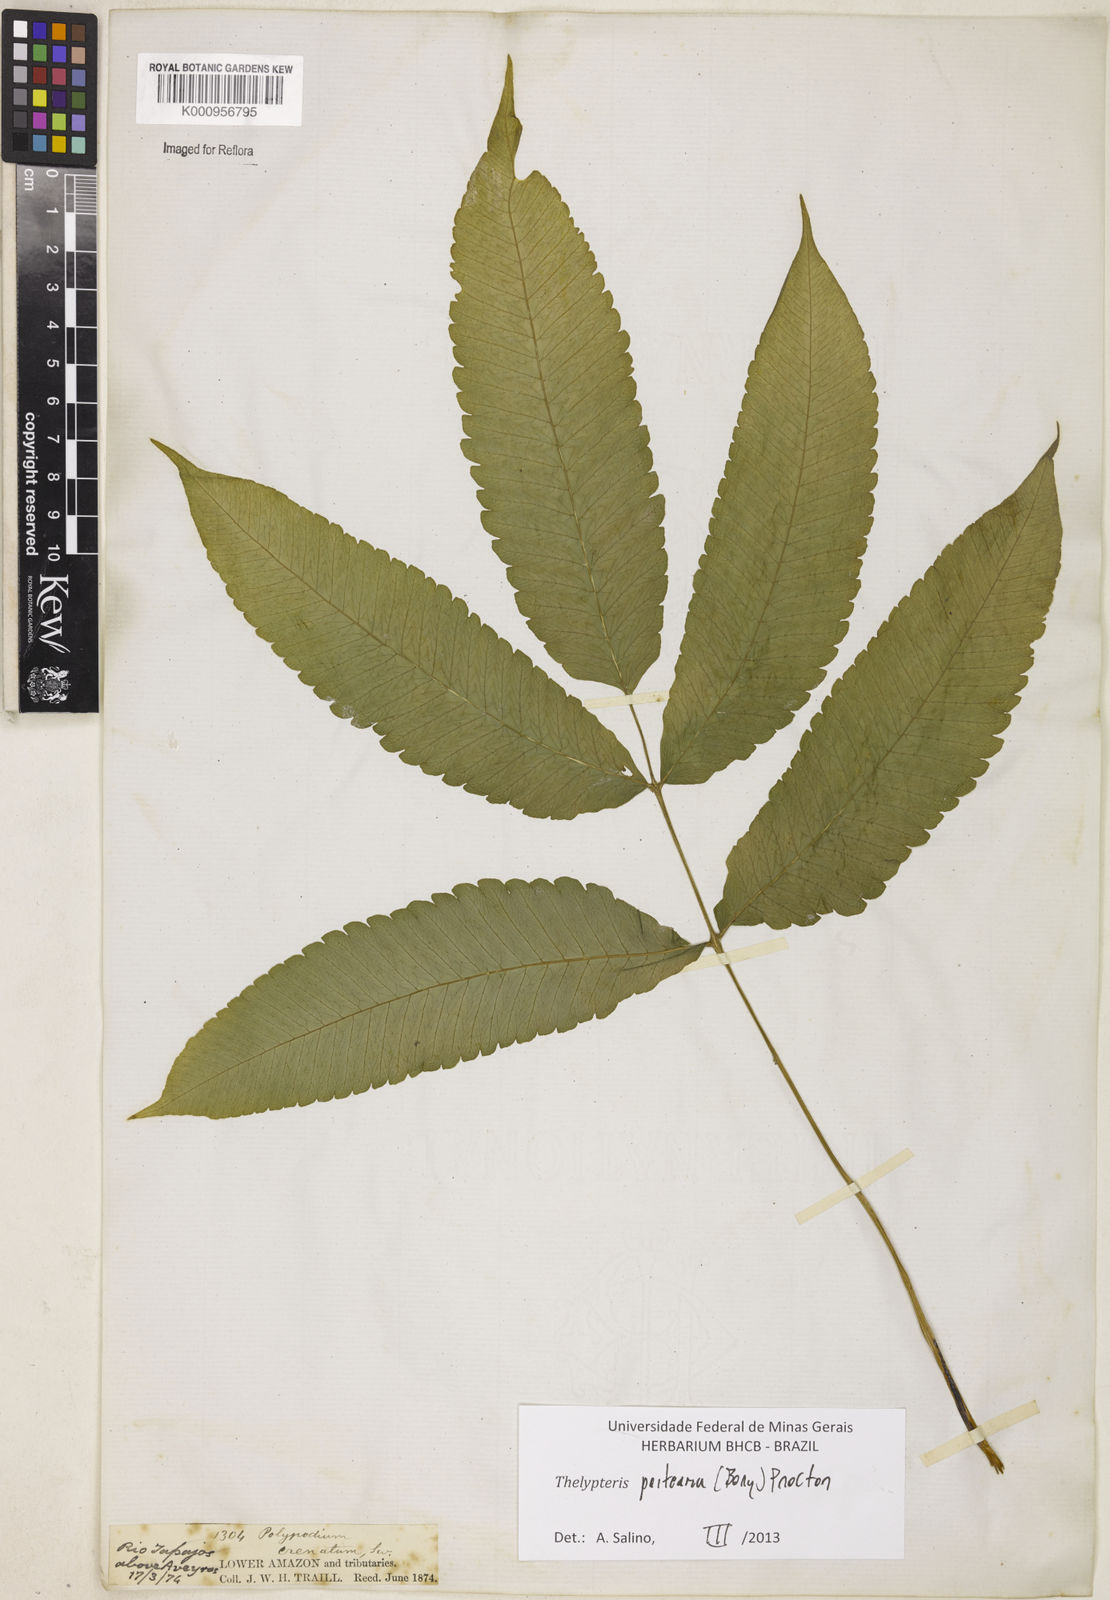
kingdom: Plantae
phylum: Tracheophyta
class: Polypodiopsida
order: Polypodiales
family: Thelypteridaceae
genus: Goniopteris
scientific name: Goniopteris poiteana
